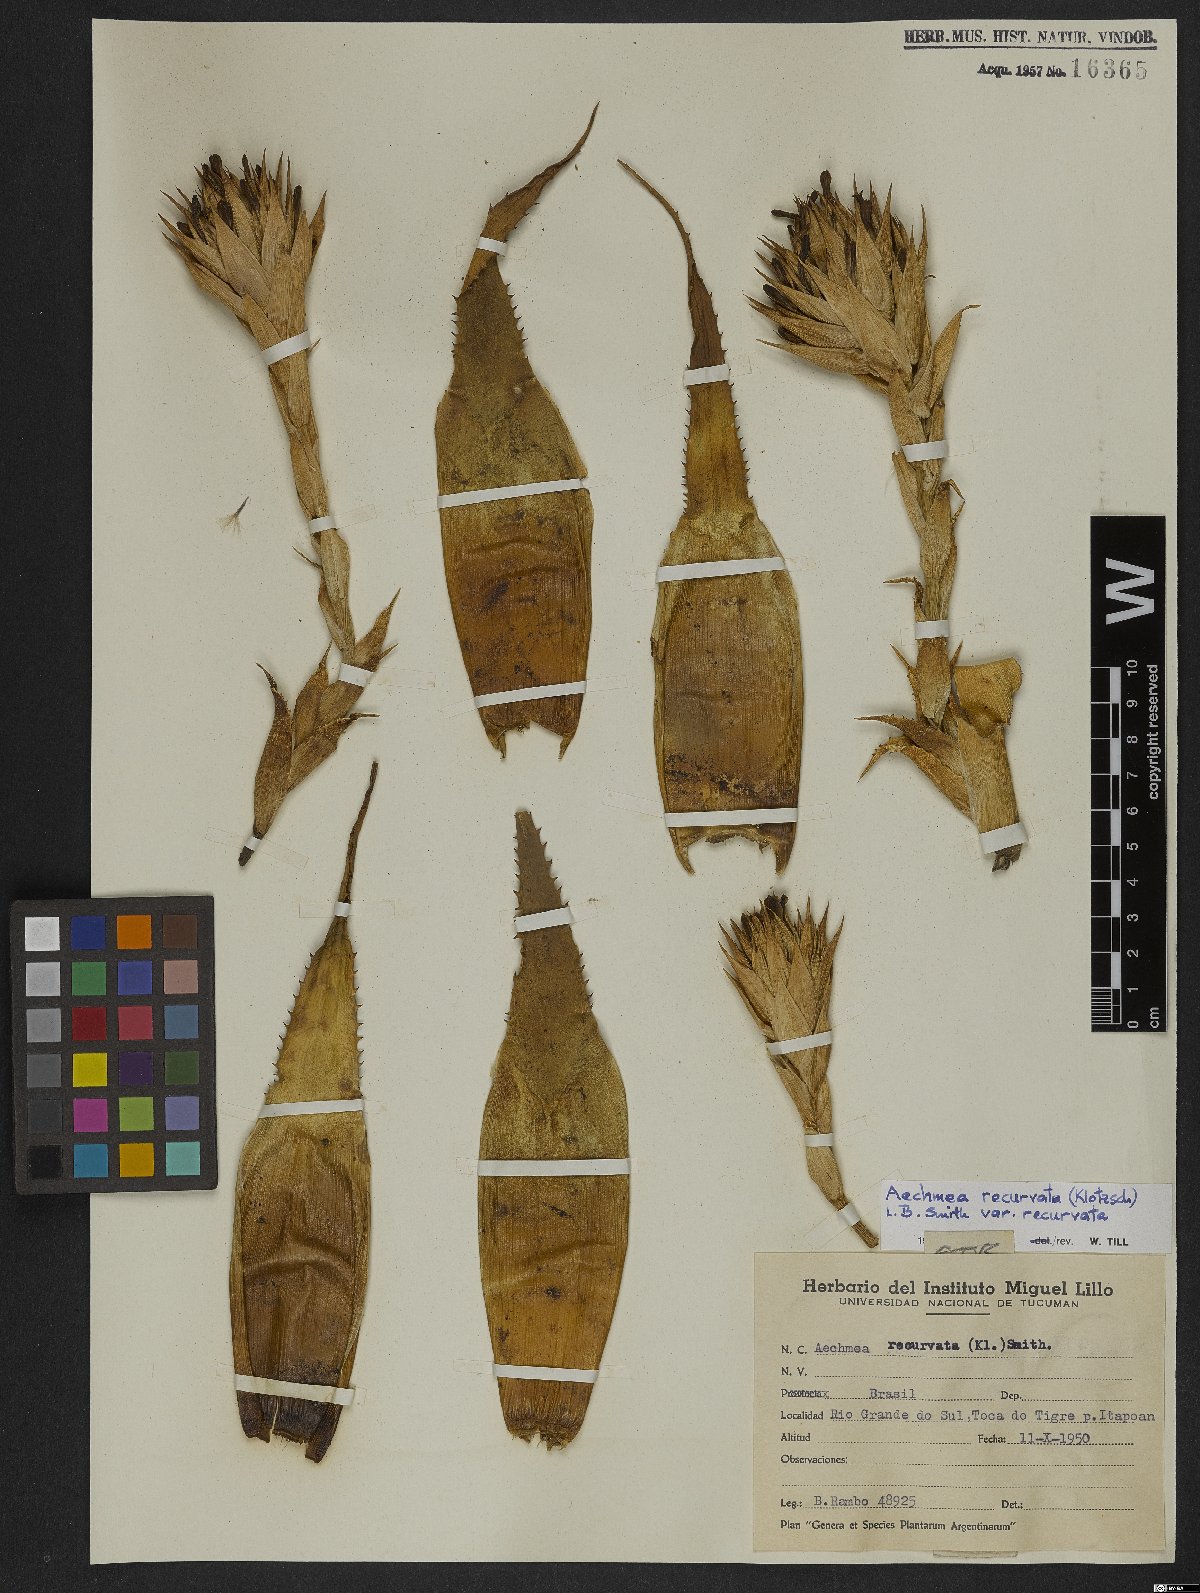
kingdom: Plantae
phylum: Tracheophyta
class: Liliopsida
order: Poales
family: Bromeliaceae
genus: Aechmea
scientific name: Aechmea recurvata
